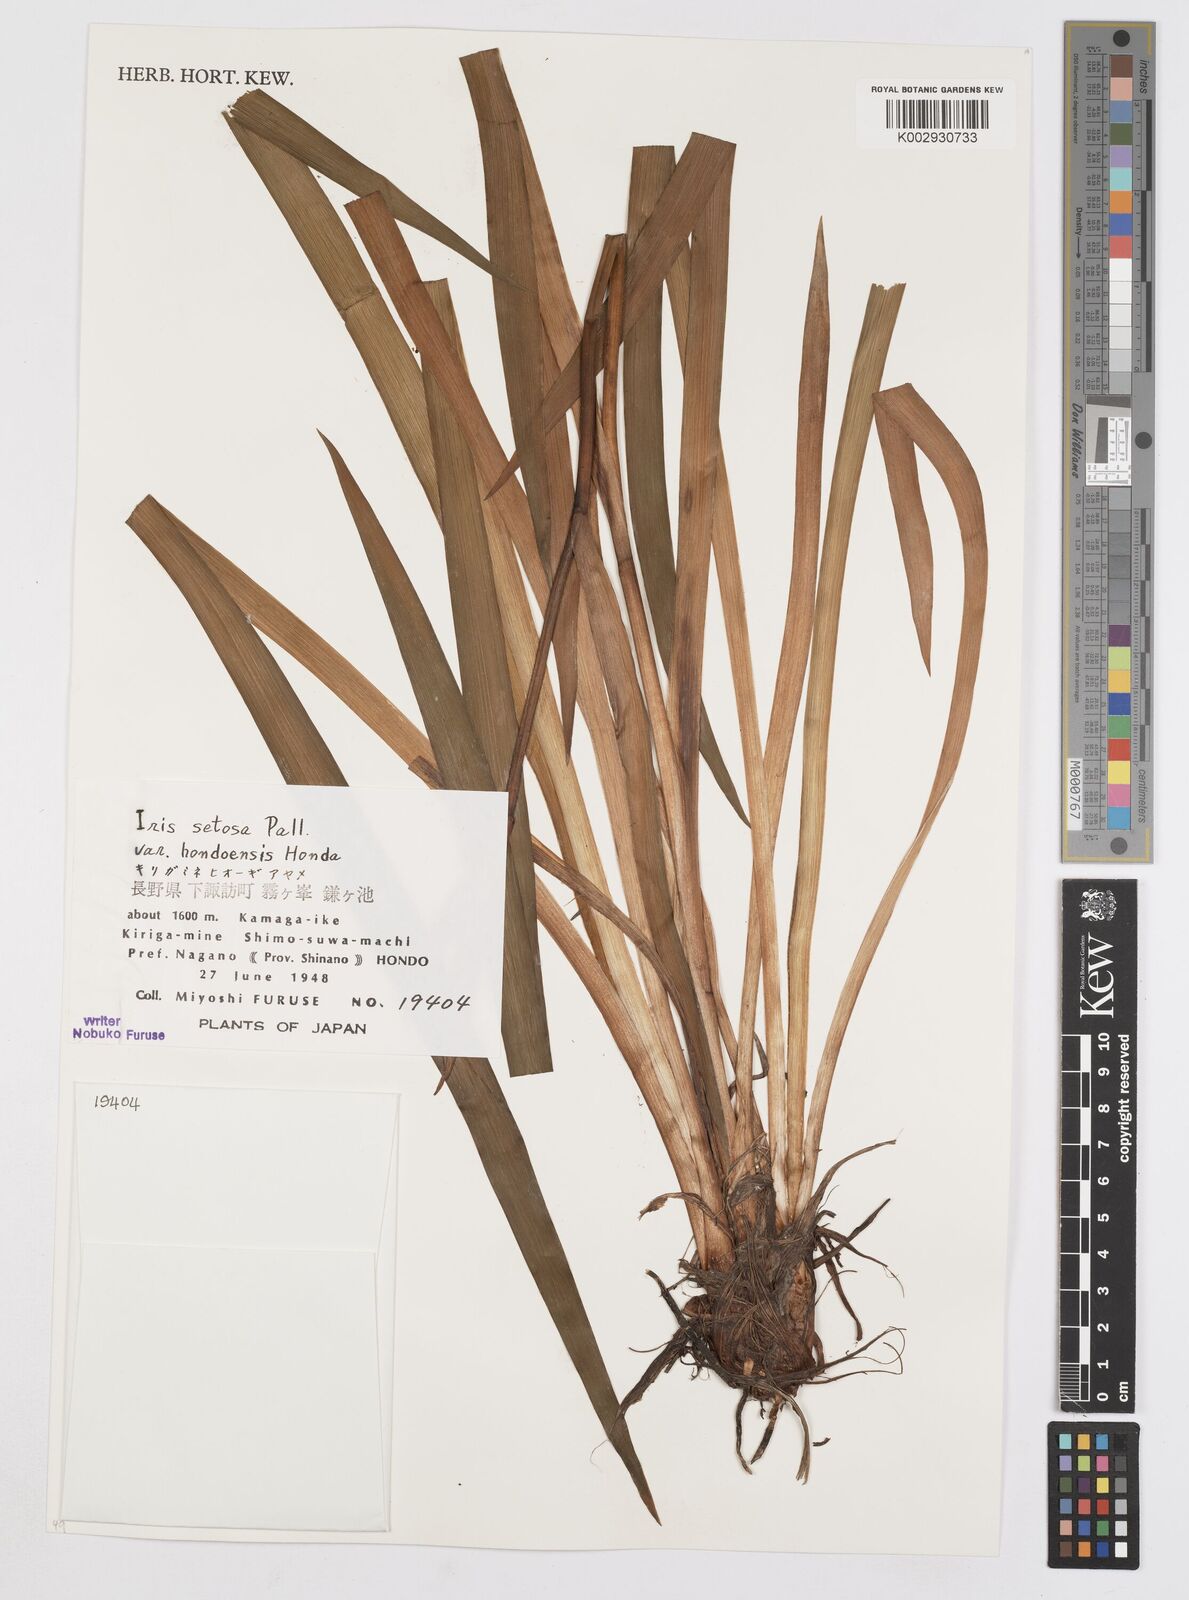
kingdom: Plantae
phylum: Tracheophyta
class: Liliopsida
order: Asparagales
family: Iridaceae
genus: Iris
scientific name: Iris setosa
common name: Arctic blue flag
